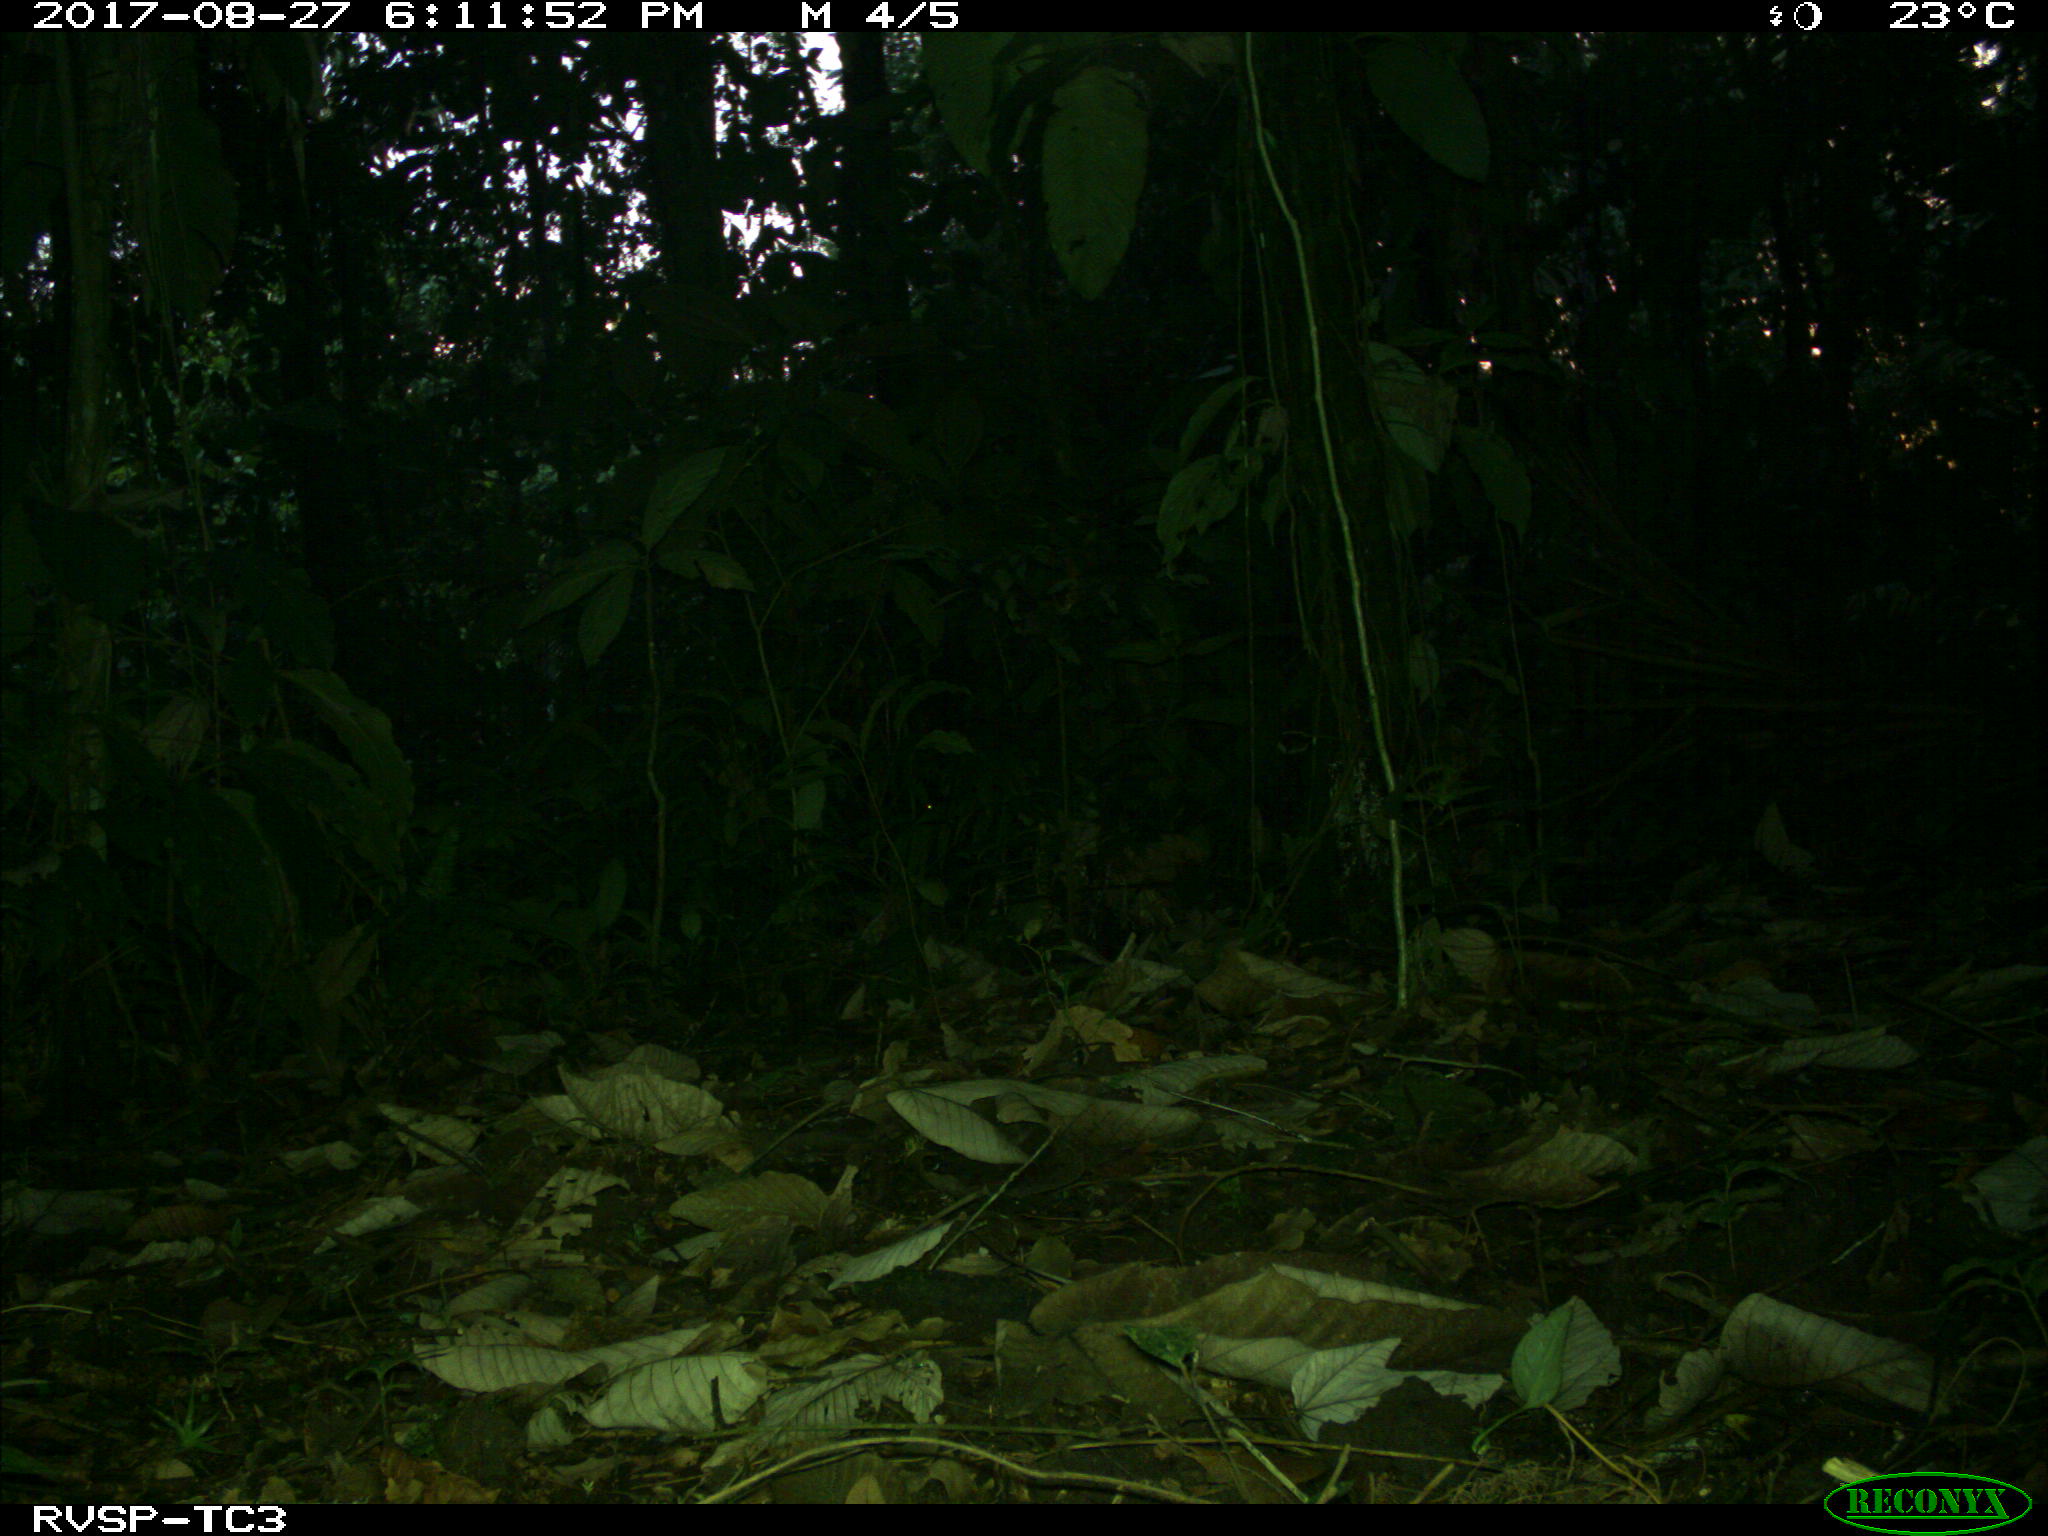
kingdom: Animalia
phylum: Chordata
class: Aves
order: Tinamiformes
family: Tinamidae
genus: Tinamus
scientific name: Tinamus major
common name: Great tinamou
